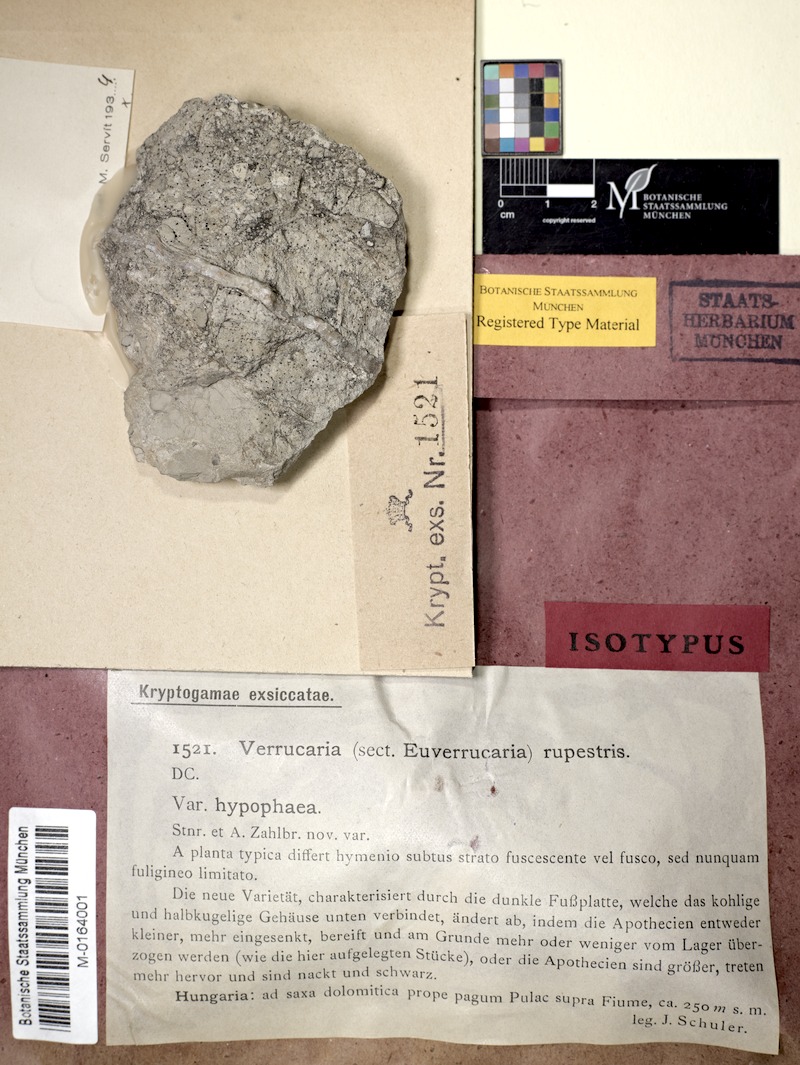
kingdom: Fungi
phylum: Ascomycota
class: Eurotiomycetes
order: Verrucariales
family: Verrucariaceae
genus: Verrucaria
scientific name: Verrucaria schindleri
